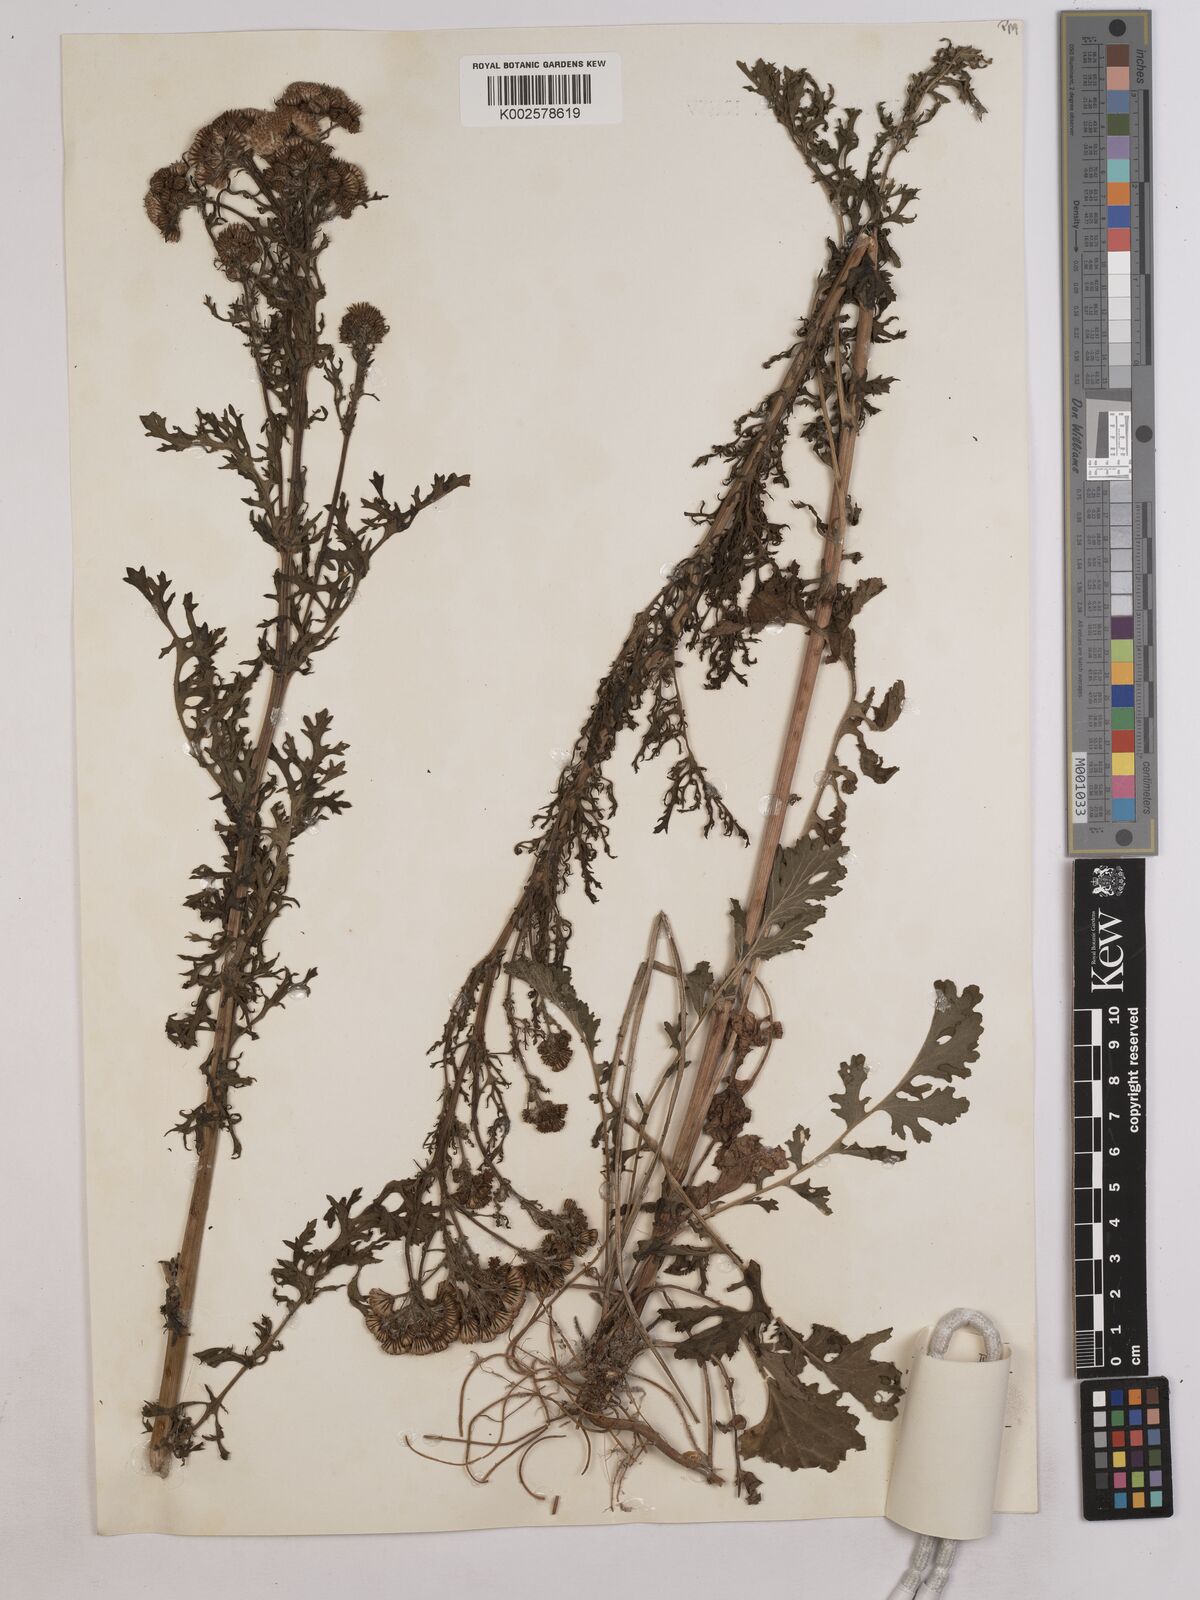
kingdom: Plantae
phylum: Tracheophyta
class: Magnoliopsida
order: Asterales
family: Asteraceae
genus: Jacobaea
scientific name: Jacobaea vulgaris
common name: Stinking willie
